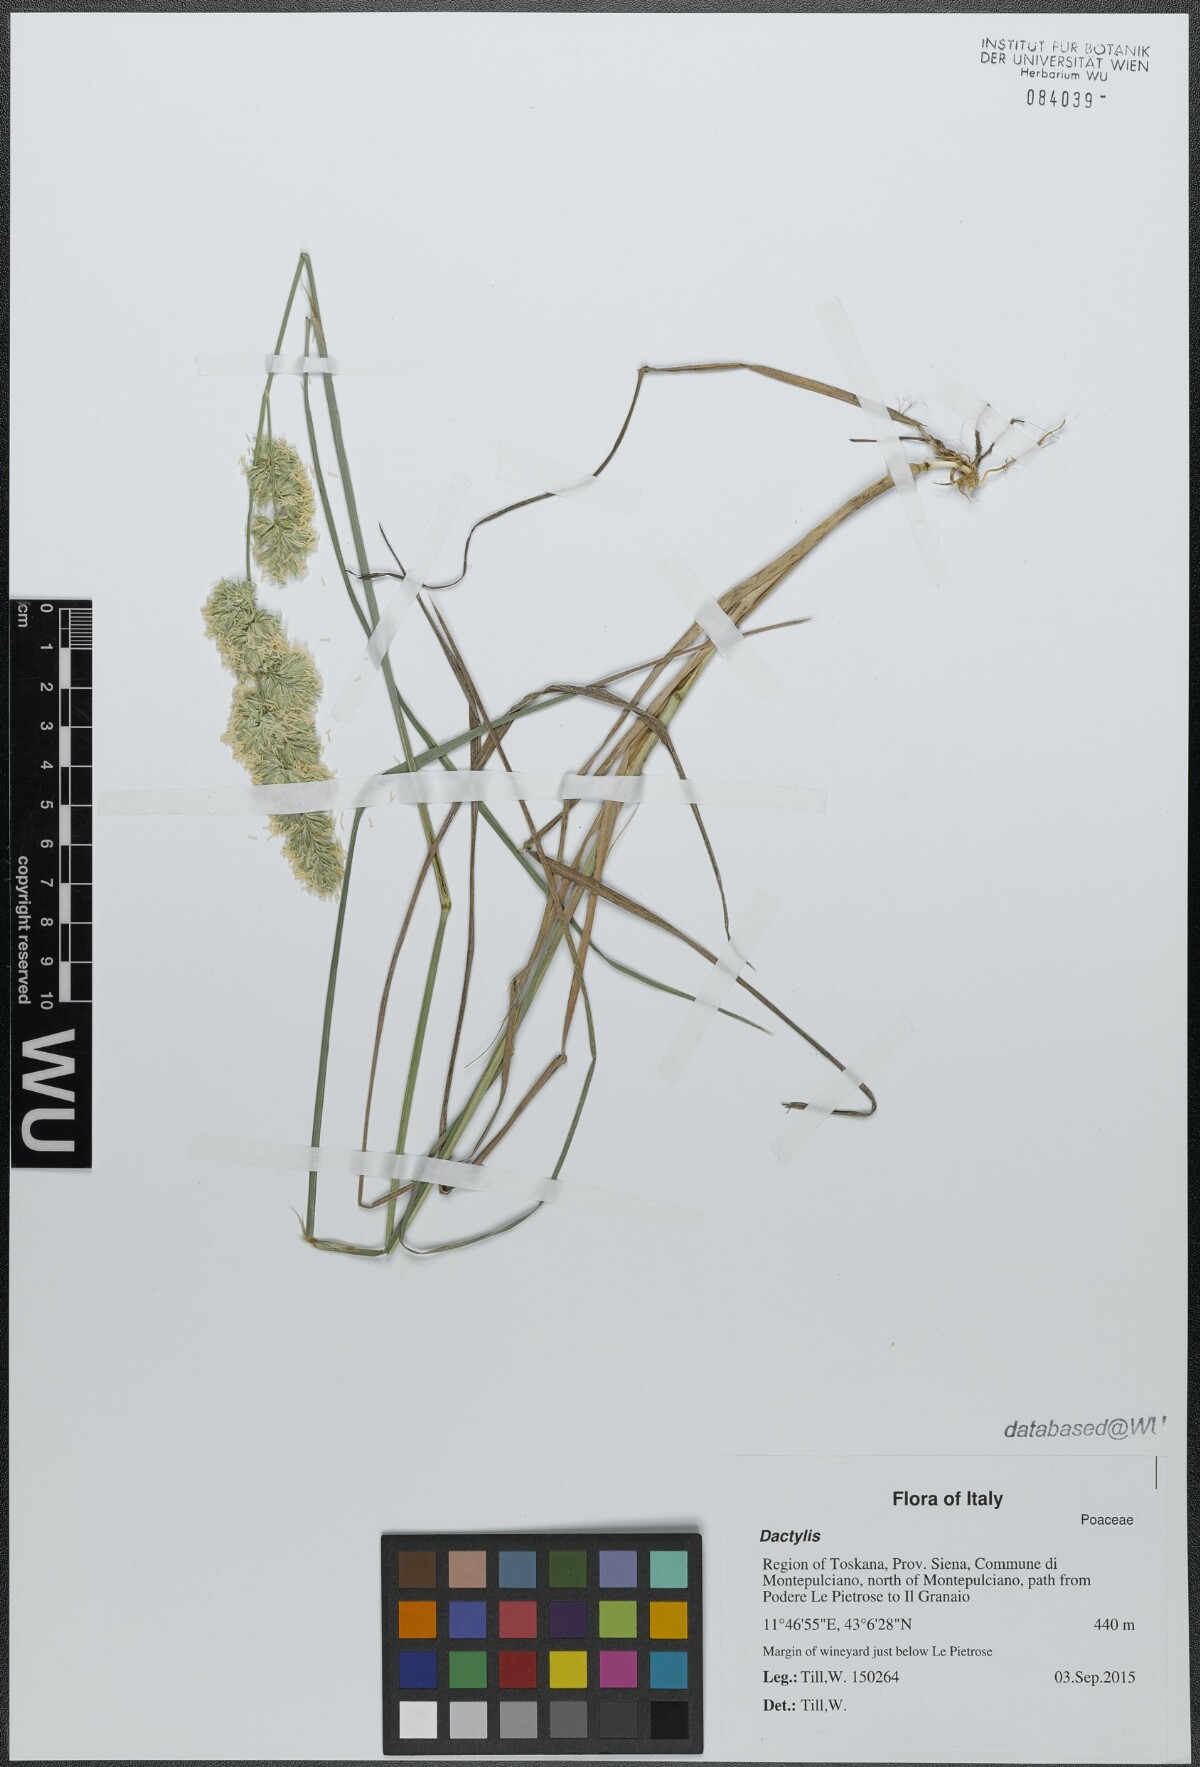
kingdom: Plantae
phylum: Tracheophyta
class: Liliopsida
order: Poales
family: Poaceae
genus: Dactylis
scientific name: Dactylis
